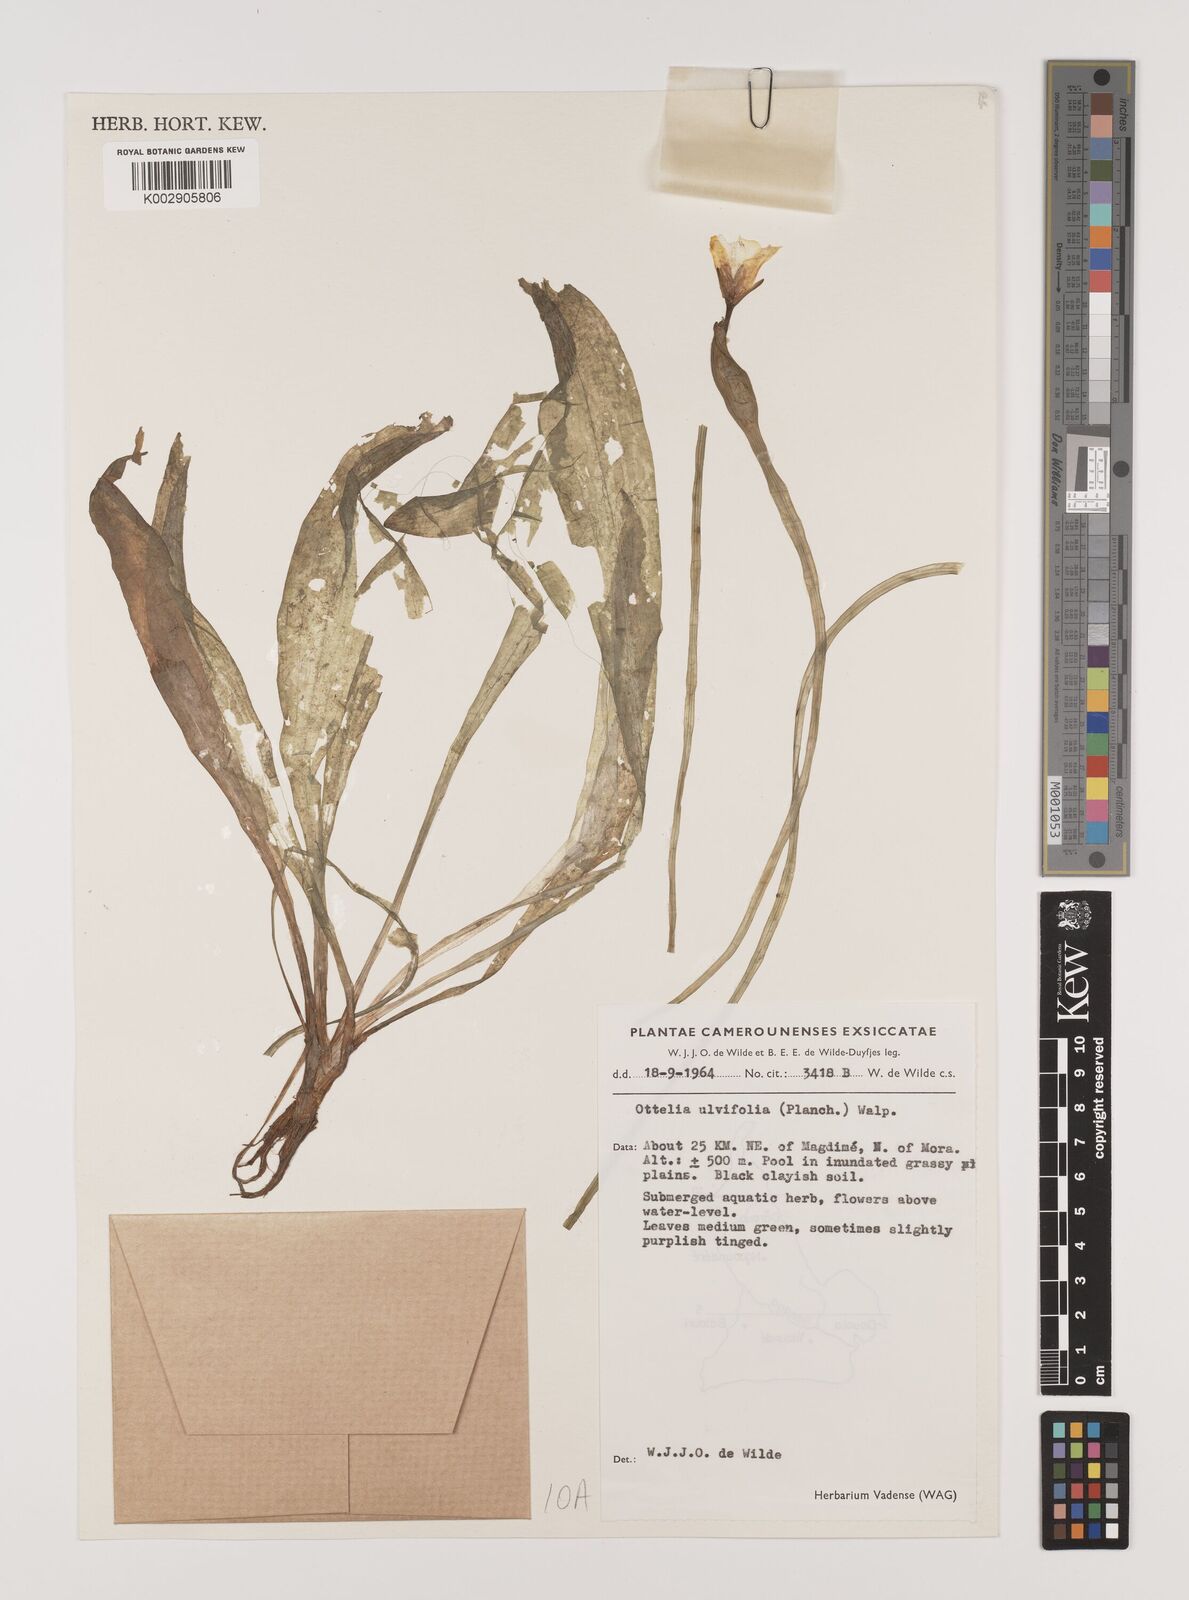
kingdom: Plantae
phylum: Tracheophyta
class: Liliopsida
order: Alismatales
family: Hydrocharitaceae
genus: Ottelia
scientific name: Ottelia ulvifolia
